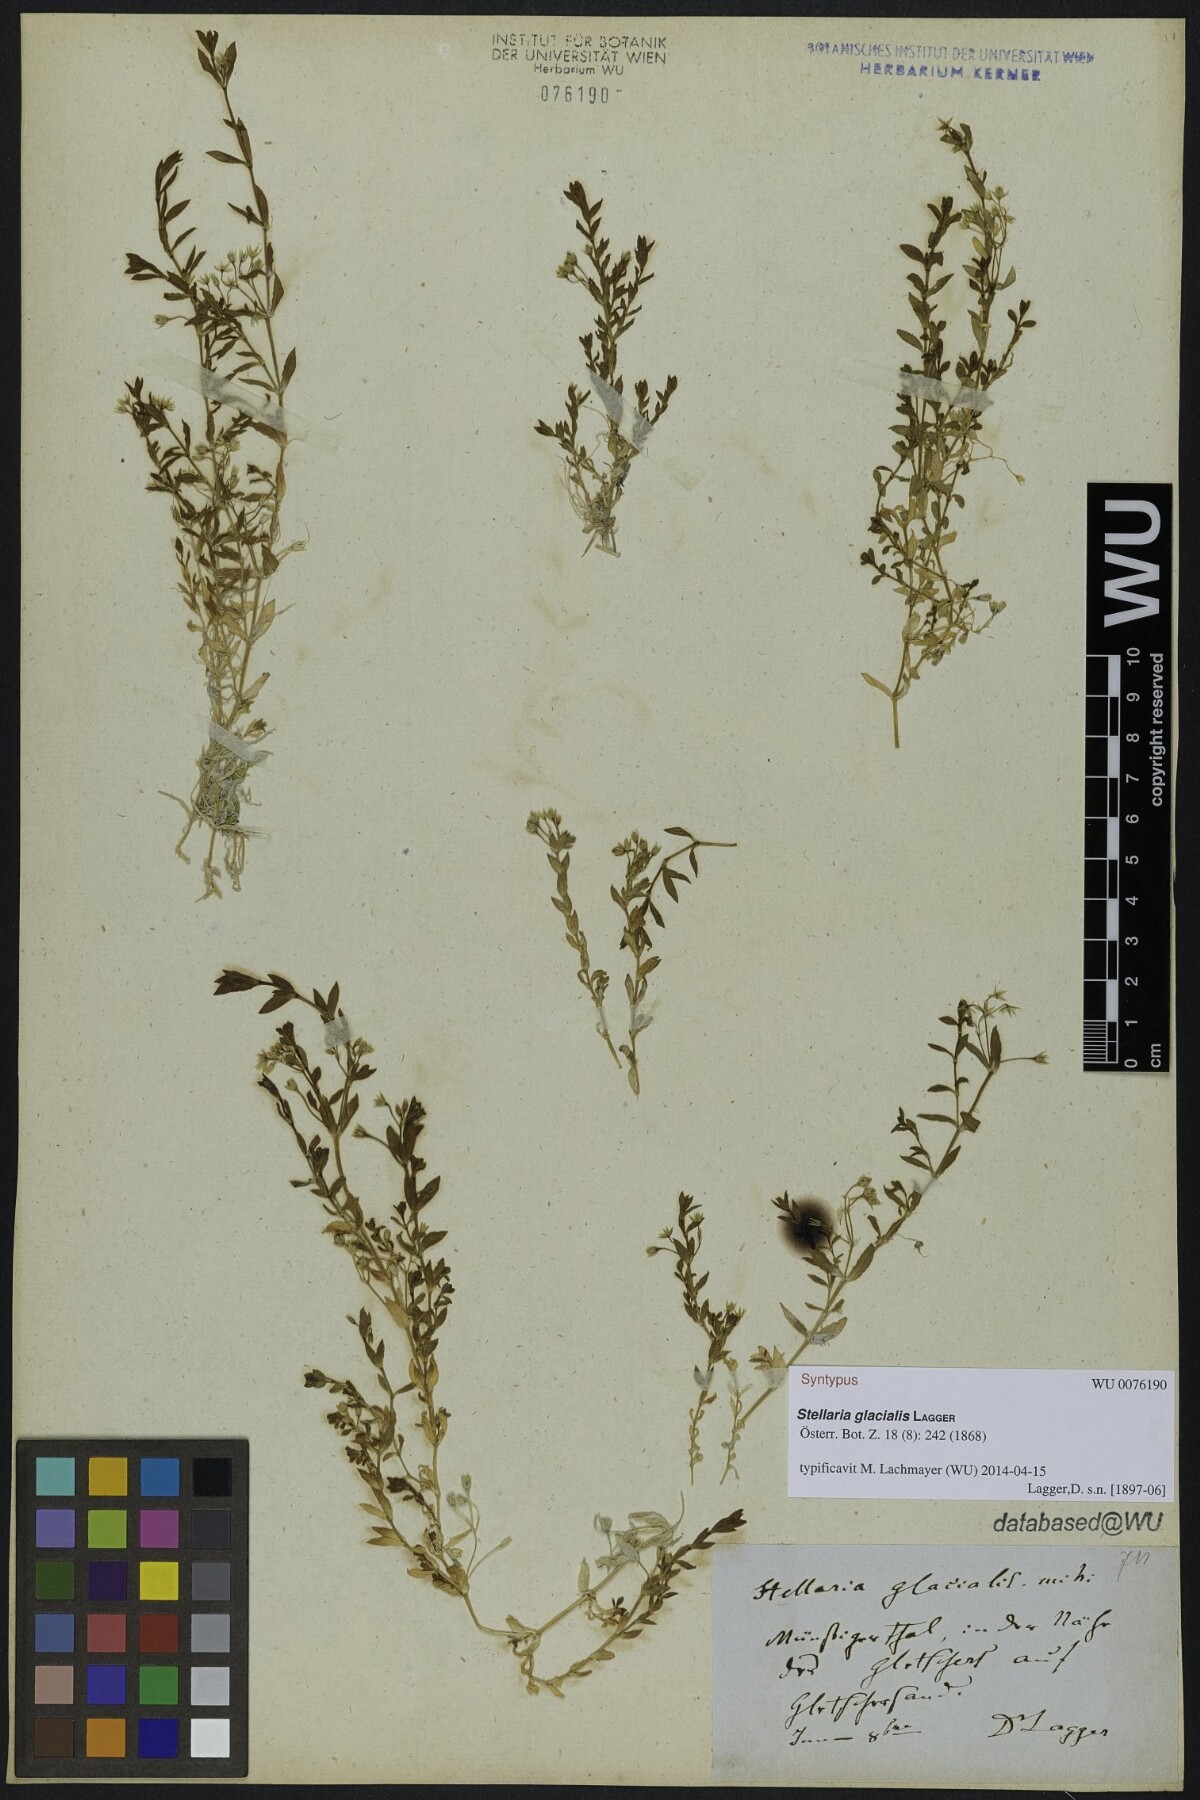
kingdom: Plantae
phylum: Tracheophyta
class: Magnoliopsida
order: Caryophyllales
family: Caryophyllaceae
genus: Stellaria
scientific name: Stellaria alsine
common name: Bog stitchwort
